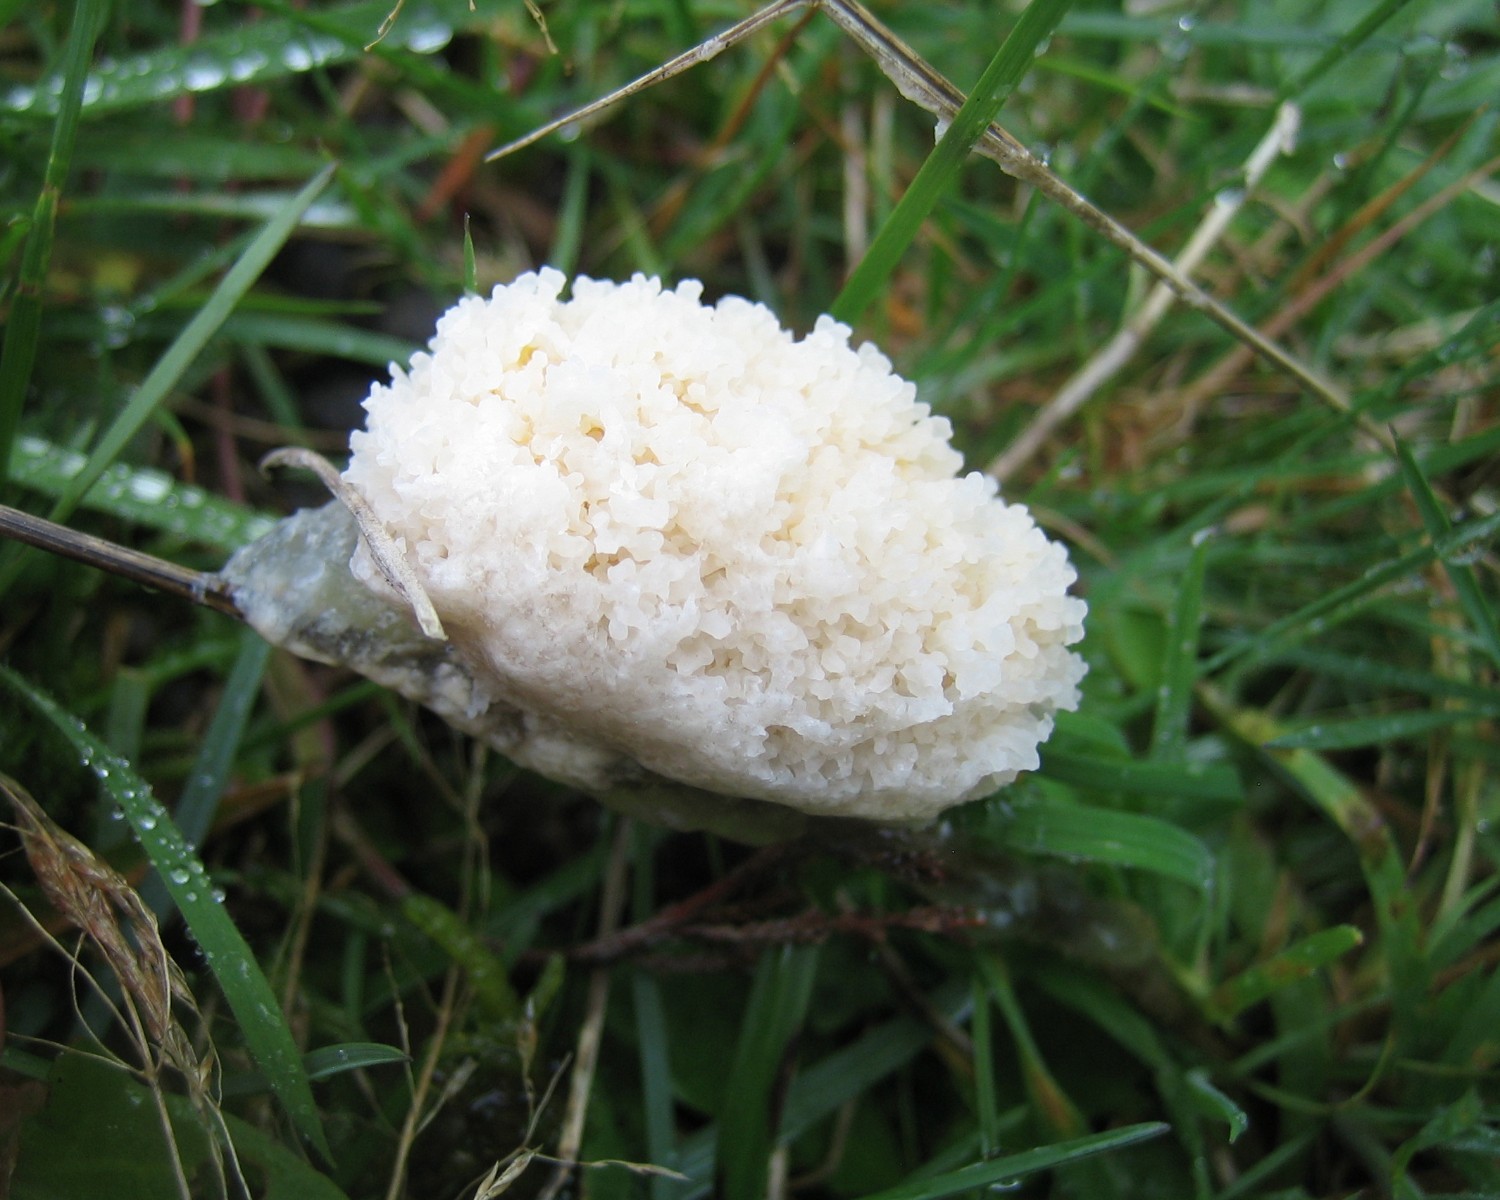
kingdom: Protozoa
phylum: Mycetozoa
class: Myxomycetes
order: Physarales
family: Physaraceae
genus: Didymium
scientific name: Didymium
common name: urteskum
